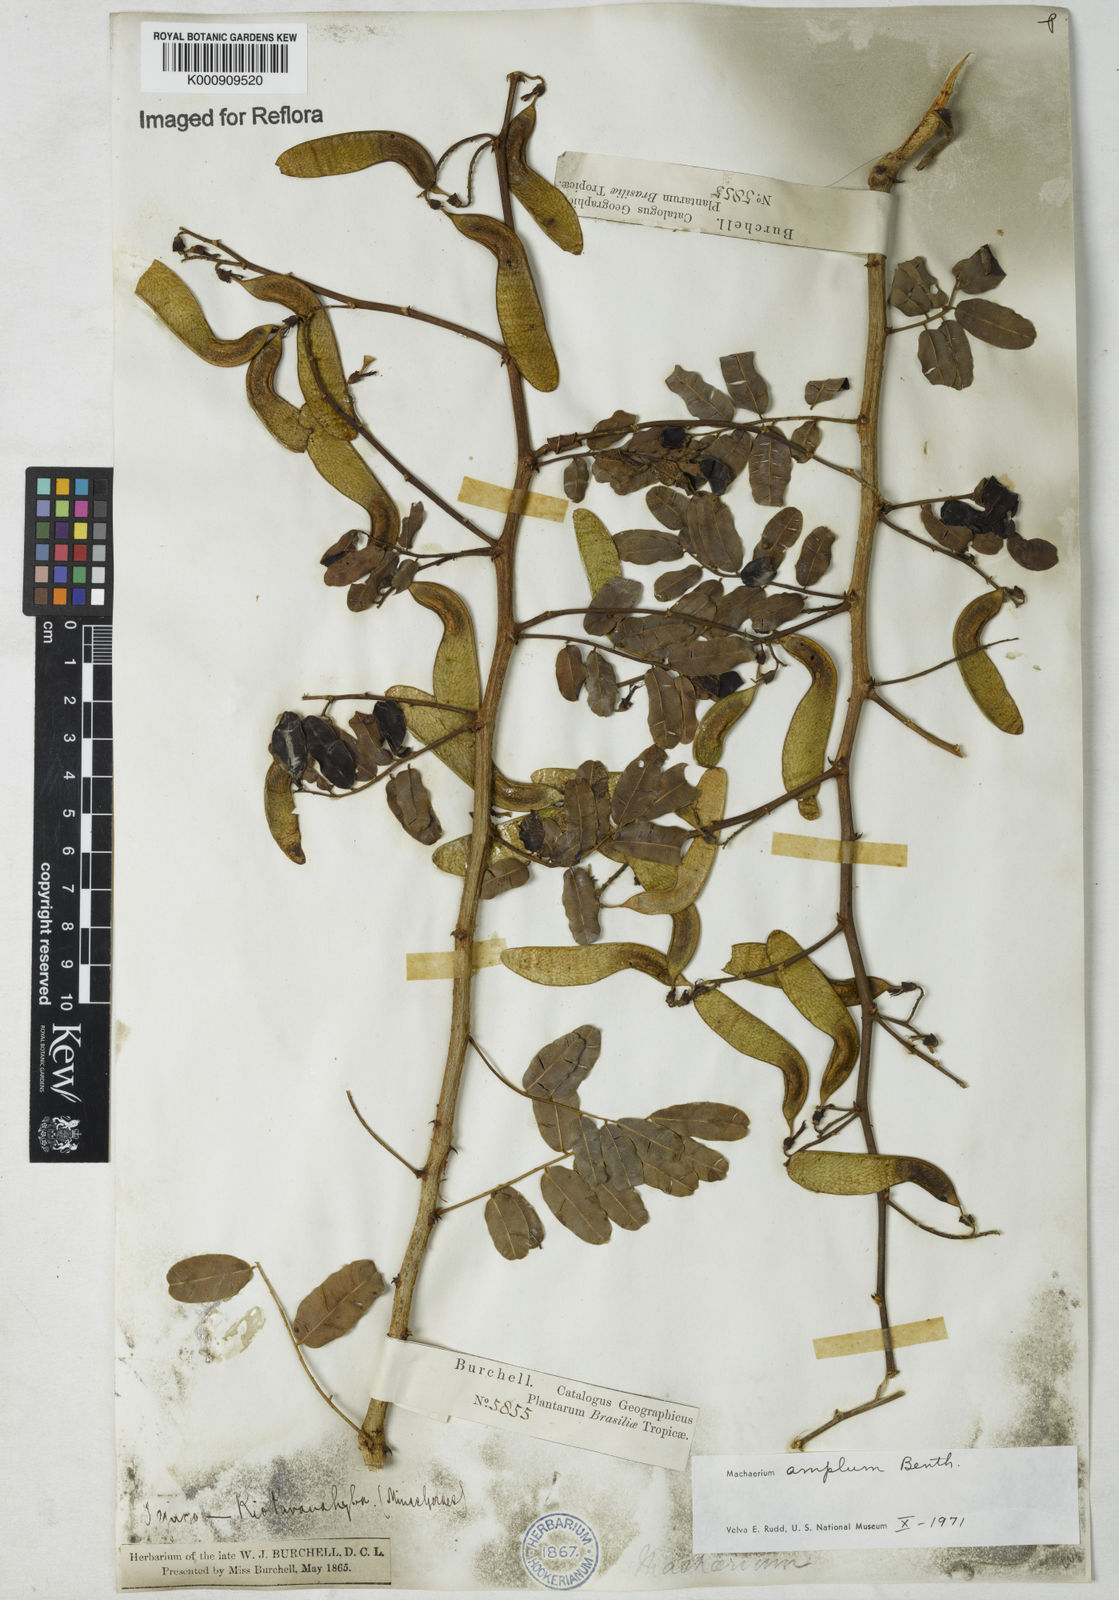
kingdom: Plantae
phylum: Tracheophyta
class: Magnoliopsida
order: Fabales
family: Fabaceae
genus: Machaerium
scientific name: Machaerium amplum
